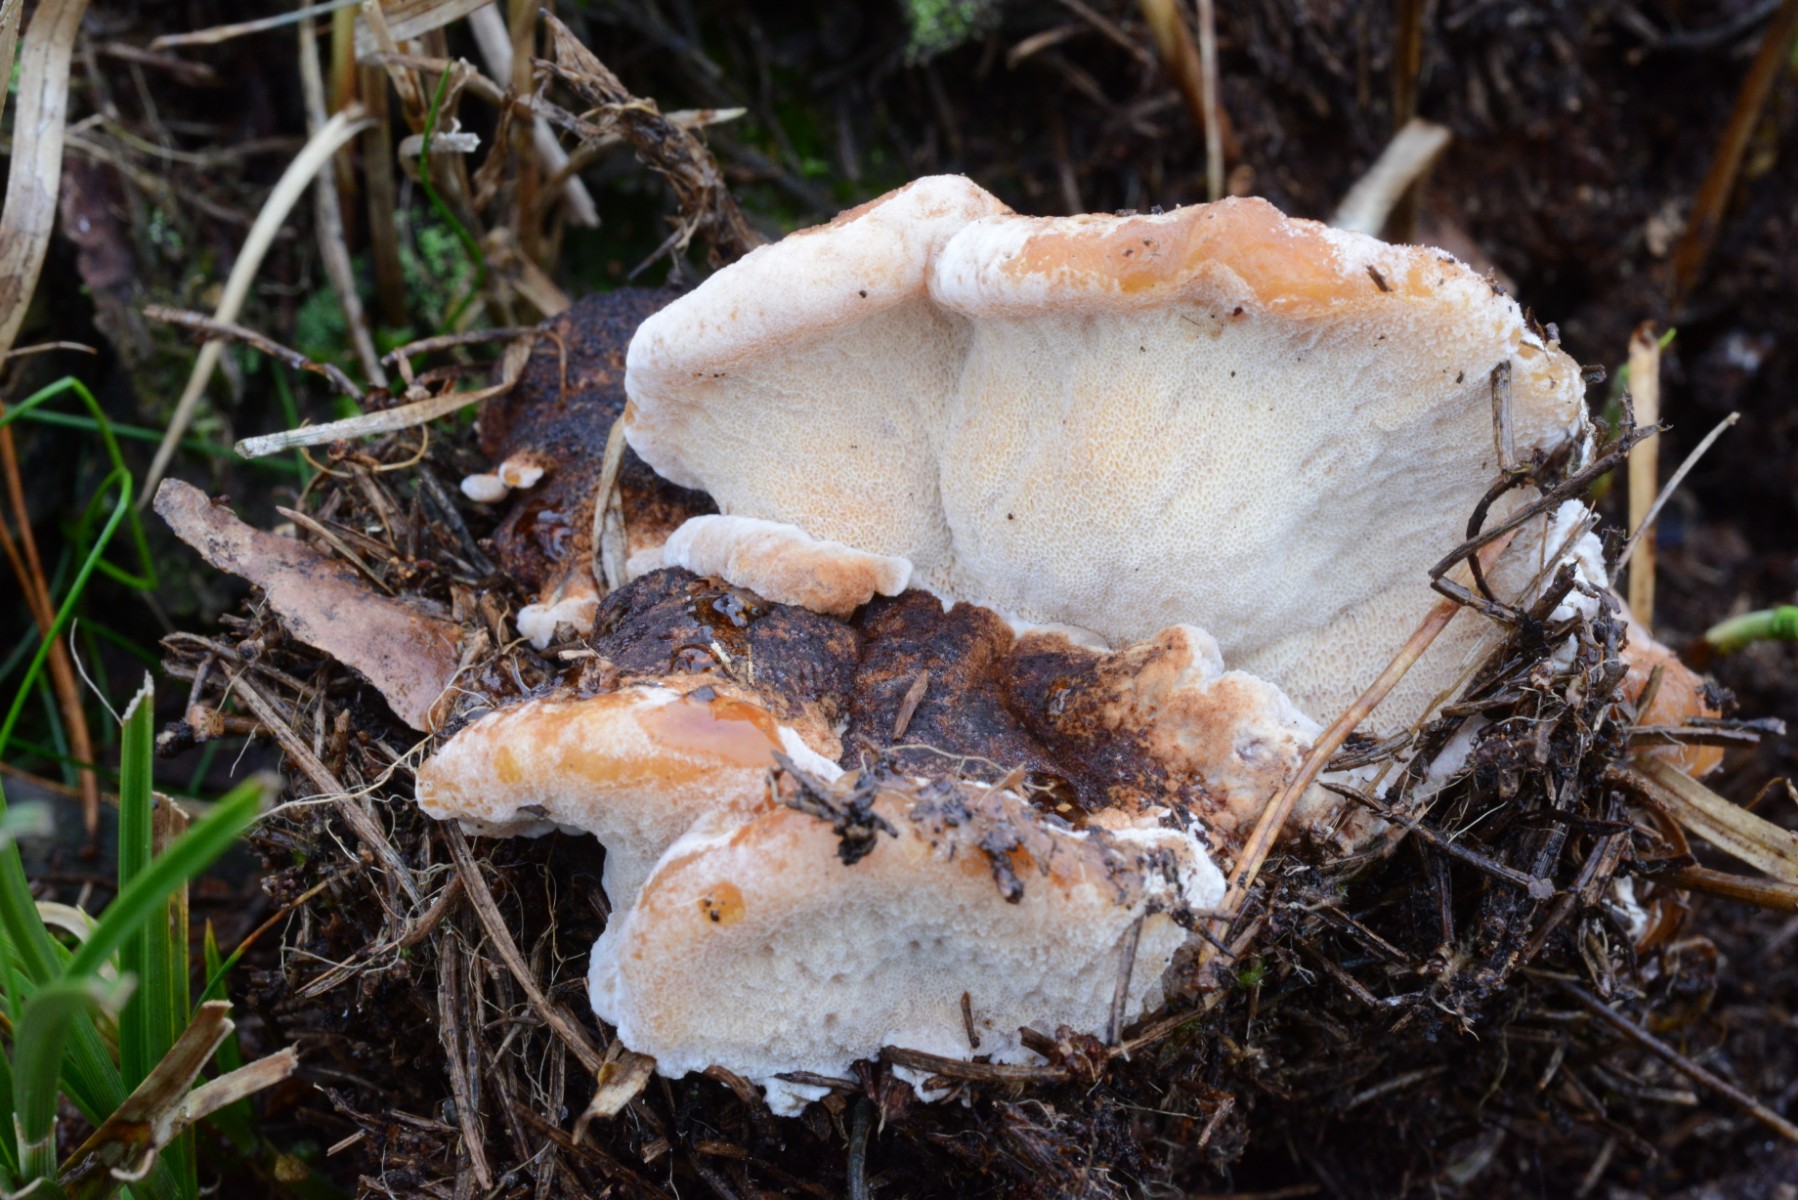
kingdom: Fungi
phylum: Basidiomycota
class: Agaricomycetes
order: Gloeophyllales
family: Gloeophyllaceae
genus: Gloeophyllum
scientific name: Gloeophyllum odoratum
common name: duftende korkhat
